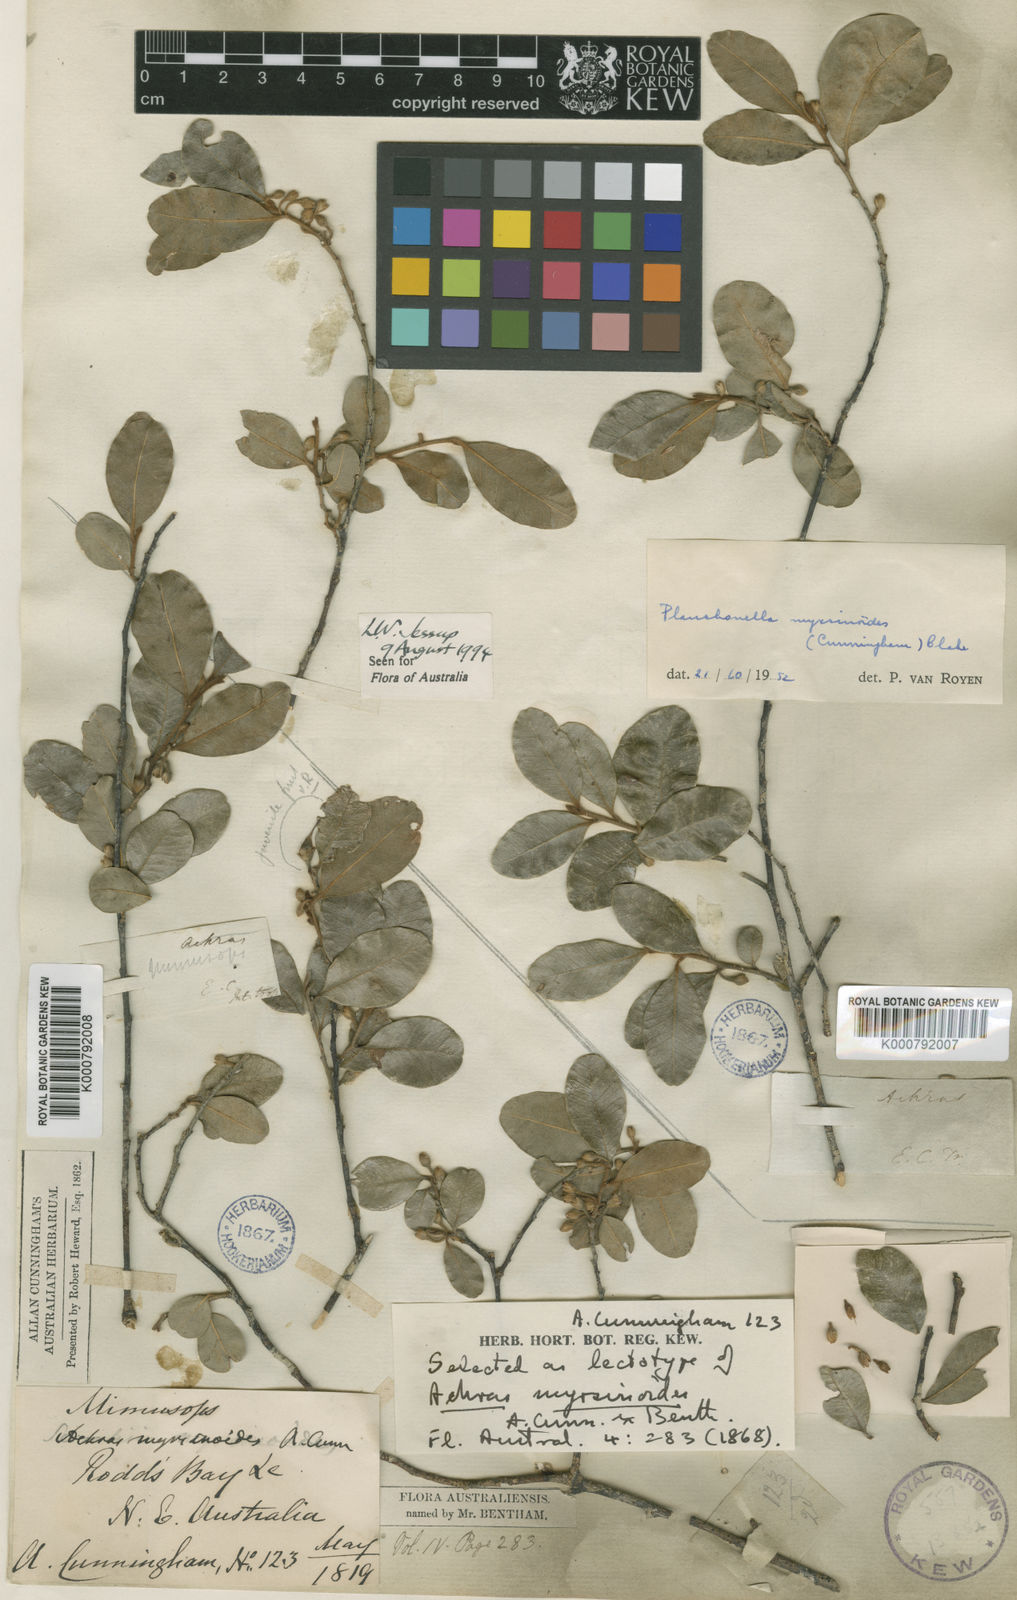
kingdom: Plantae
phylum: Tracheophyta
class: Magnoliopsida
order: Ericales
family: Sapotaceae
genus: Planchonella
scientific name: Planchonella myrsinoides
